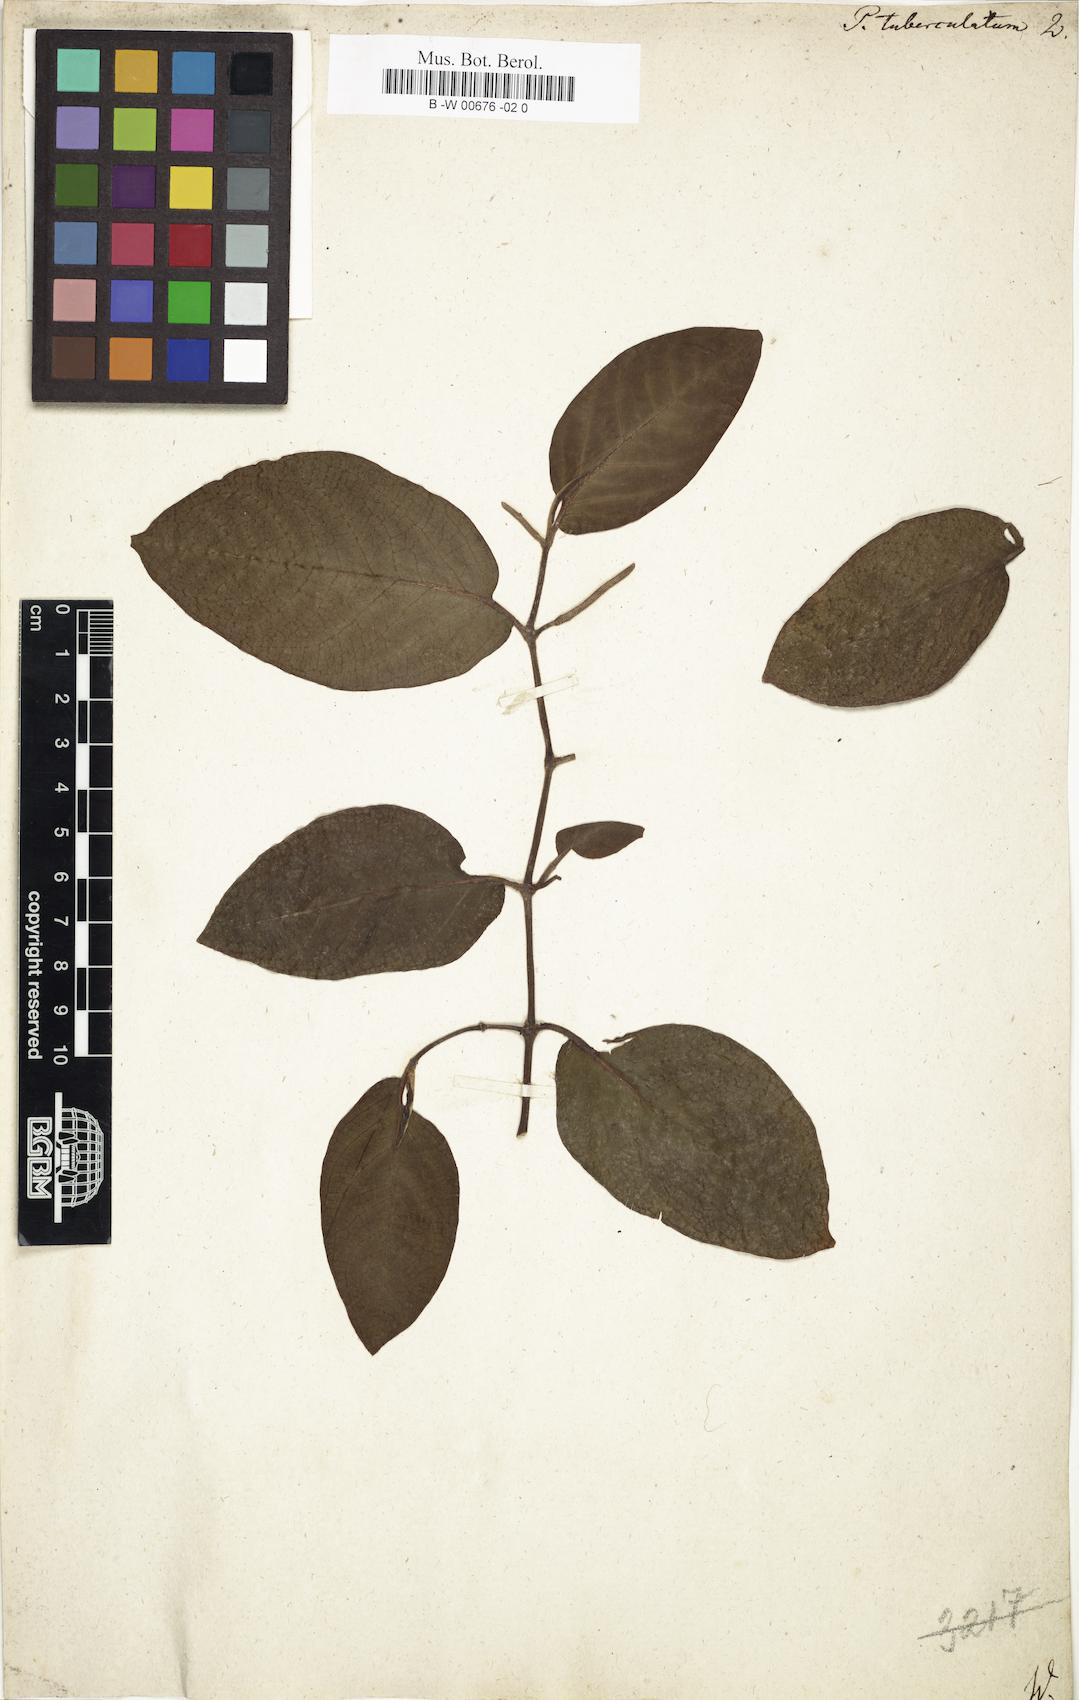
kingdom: Plantae
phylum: Tracheophyta
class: Magnoliopsida
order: Piperales
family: Piperaceae
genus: Piper
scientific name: Piper tuberculatum
